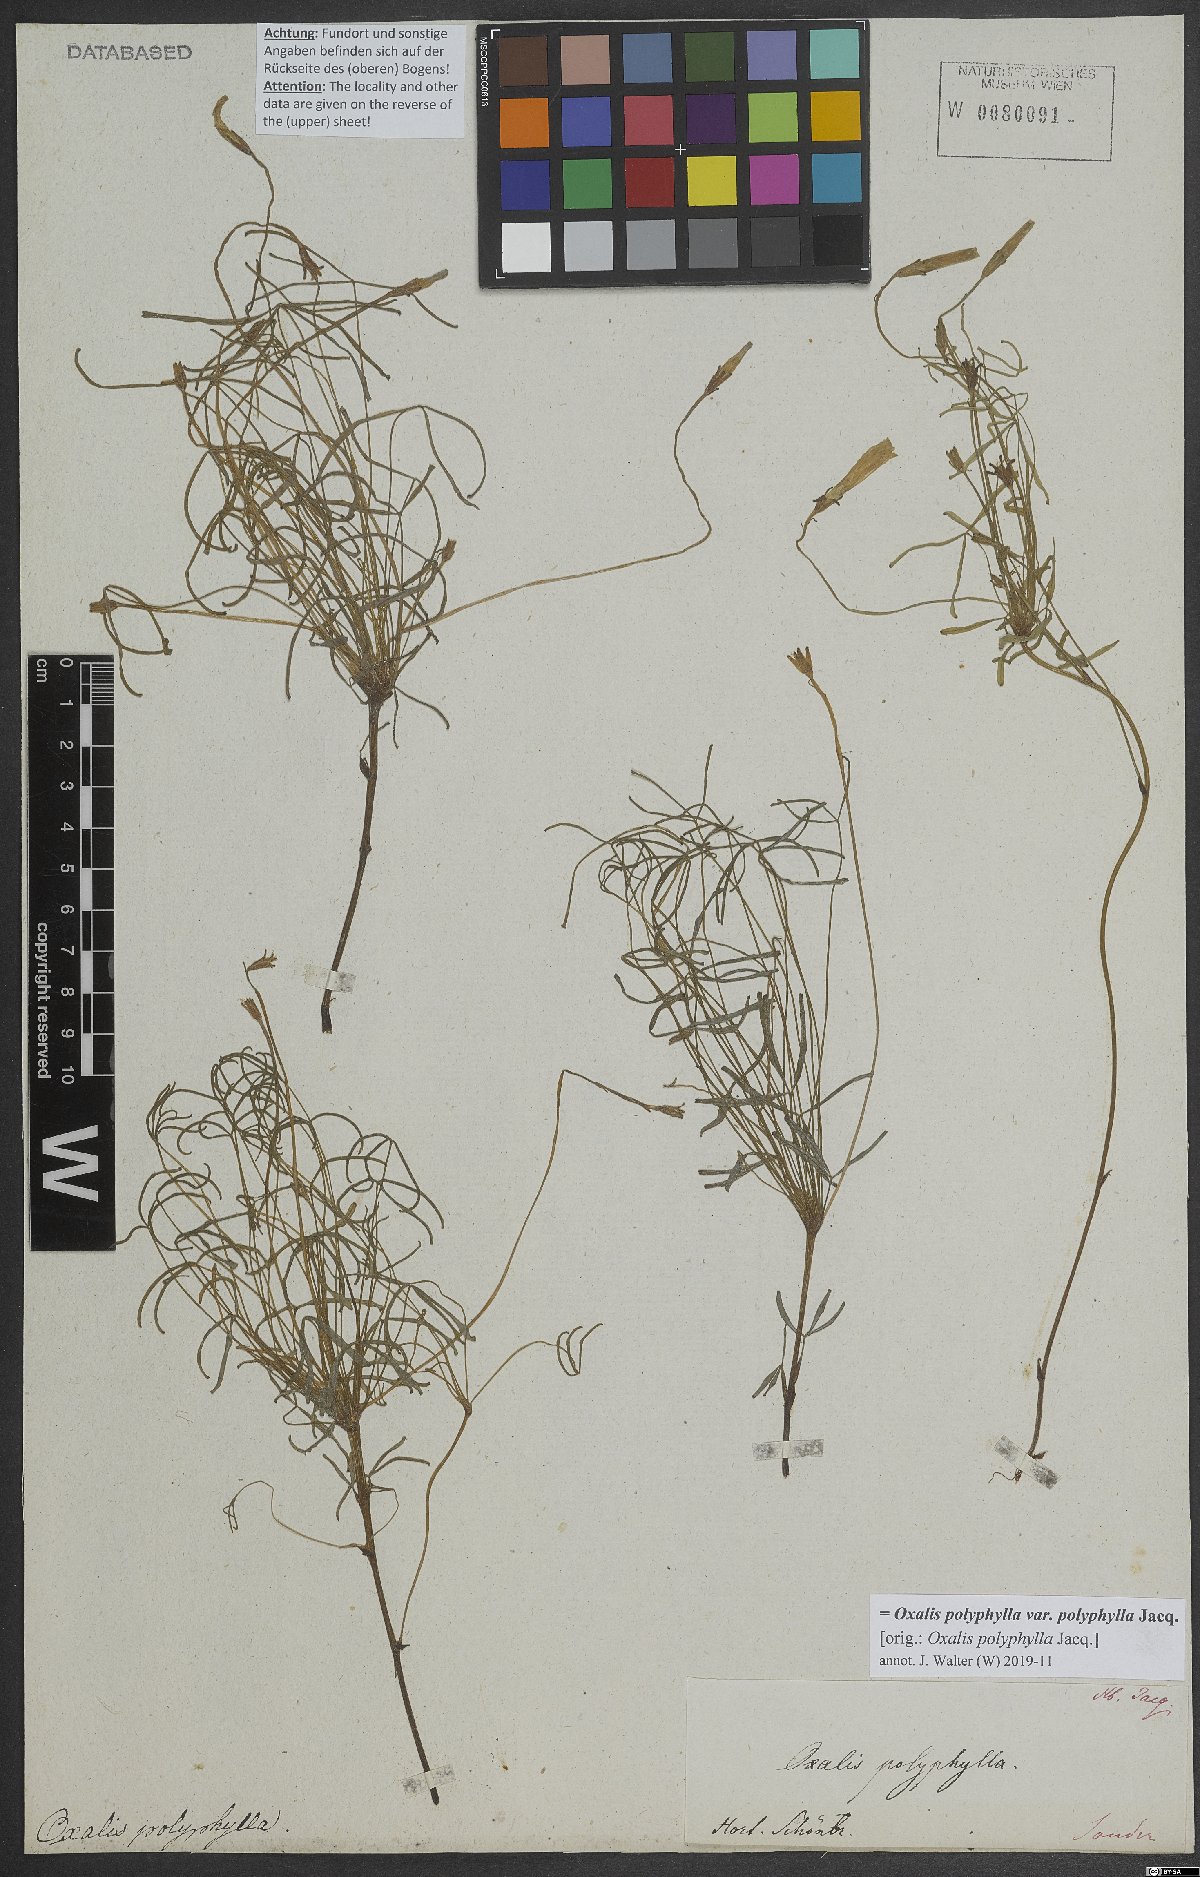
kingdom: Plantae
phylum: Tracheophyta
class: Magnoliopsida
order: Oxalidales
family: Oxalidaceae
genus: Oxalis
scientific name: Oxalis polyphylla
